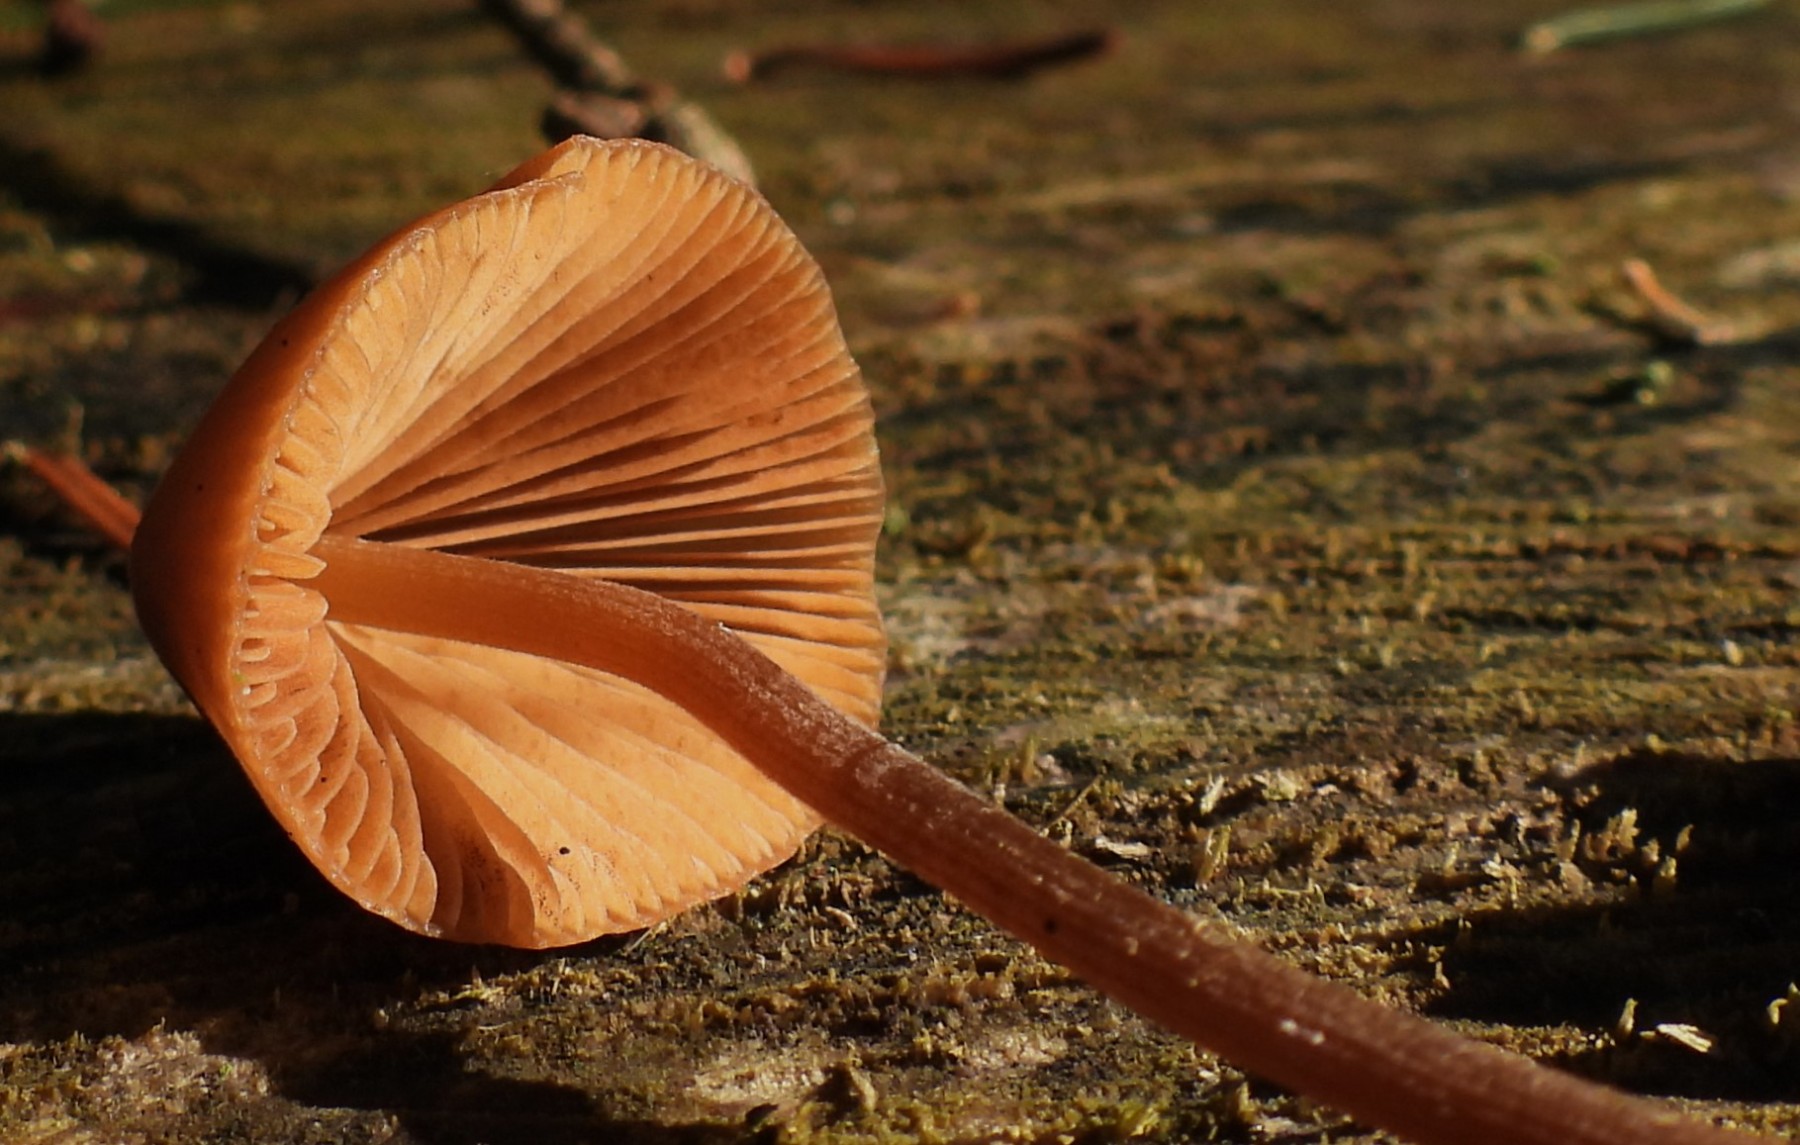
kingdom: Fungi
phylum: Basidiomycota
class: Agaricomycetes
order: Agaricales
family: Bolbitiaceae
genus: Conocybe
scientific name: Conocybe subpubescens
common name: krat-keglehat
